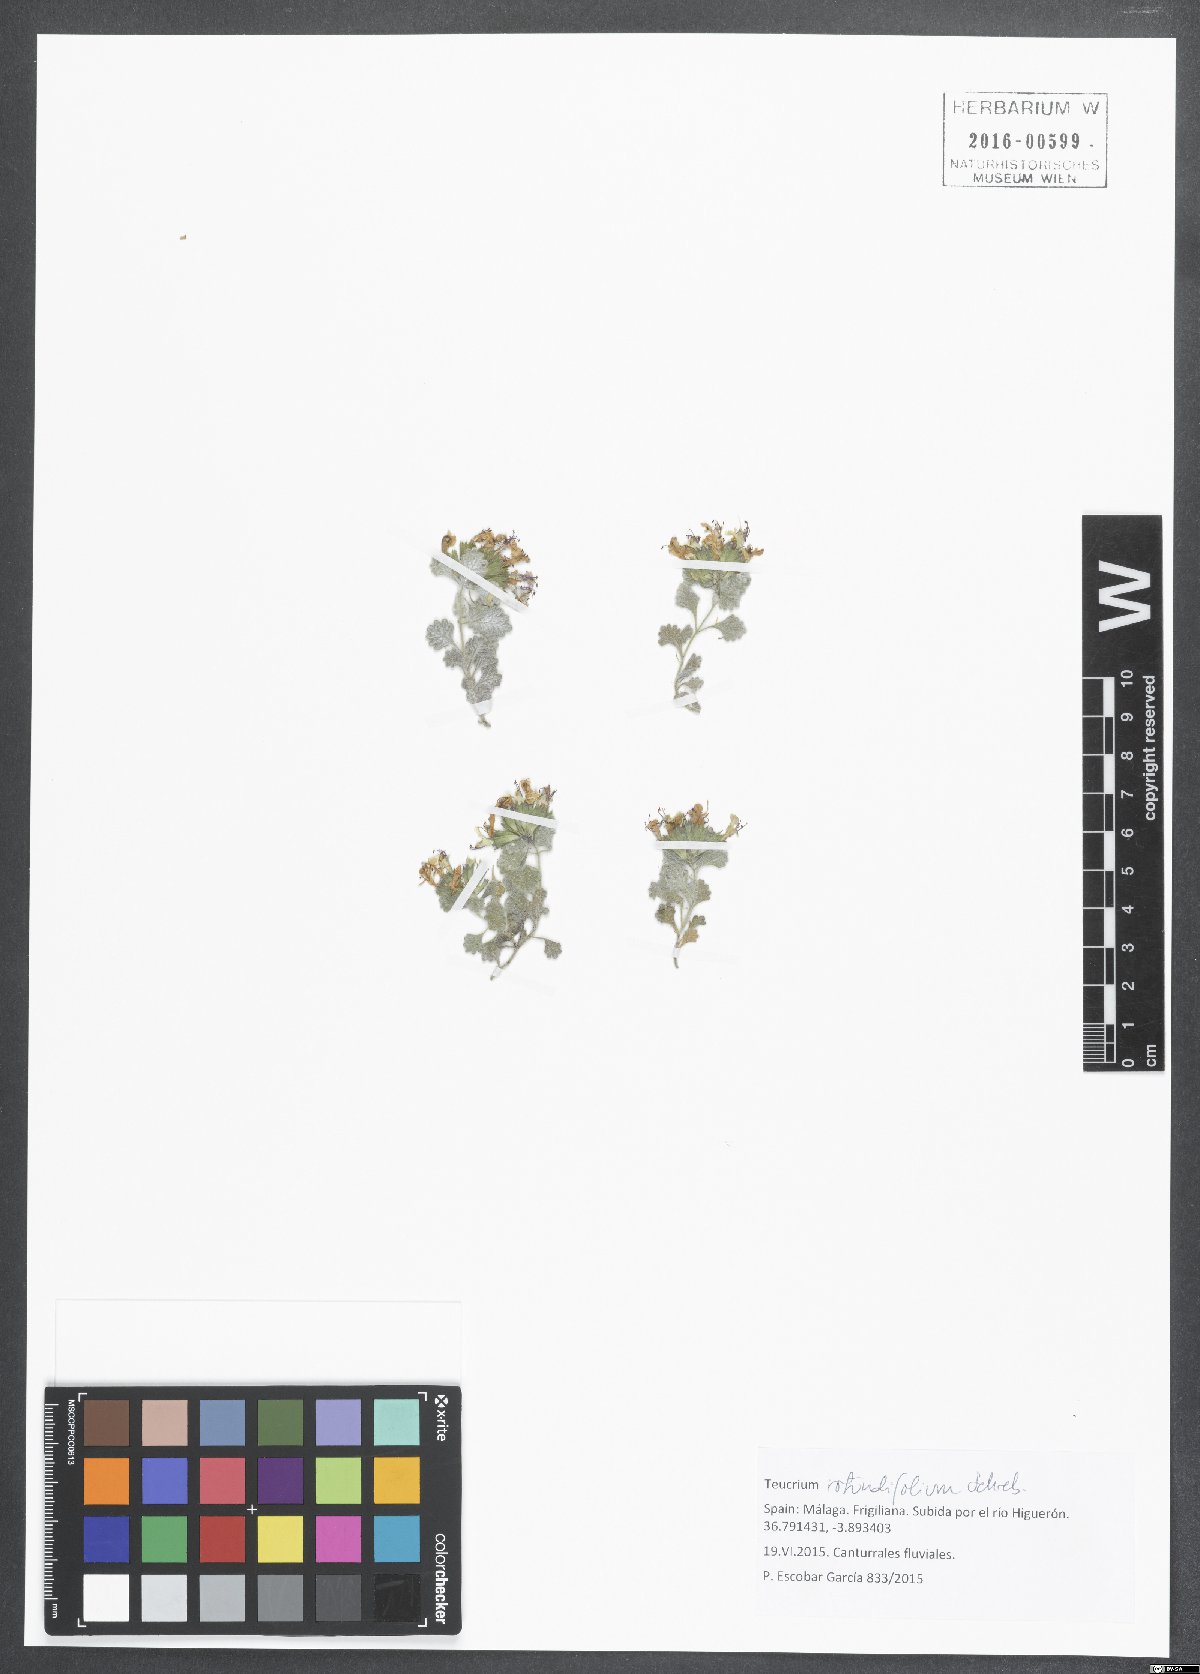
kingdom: Plantae
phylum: Tracheophyta
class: Magnoliopsida
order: Lamiales
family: Lamiaceae
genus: Teucrium
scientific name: Teucrium rotundifolium
